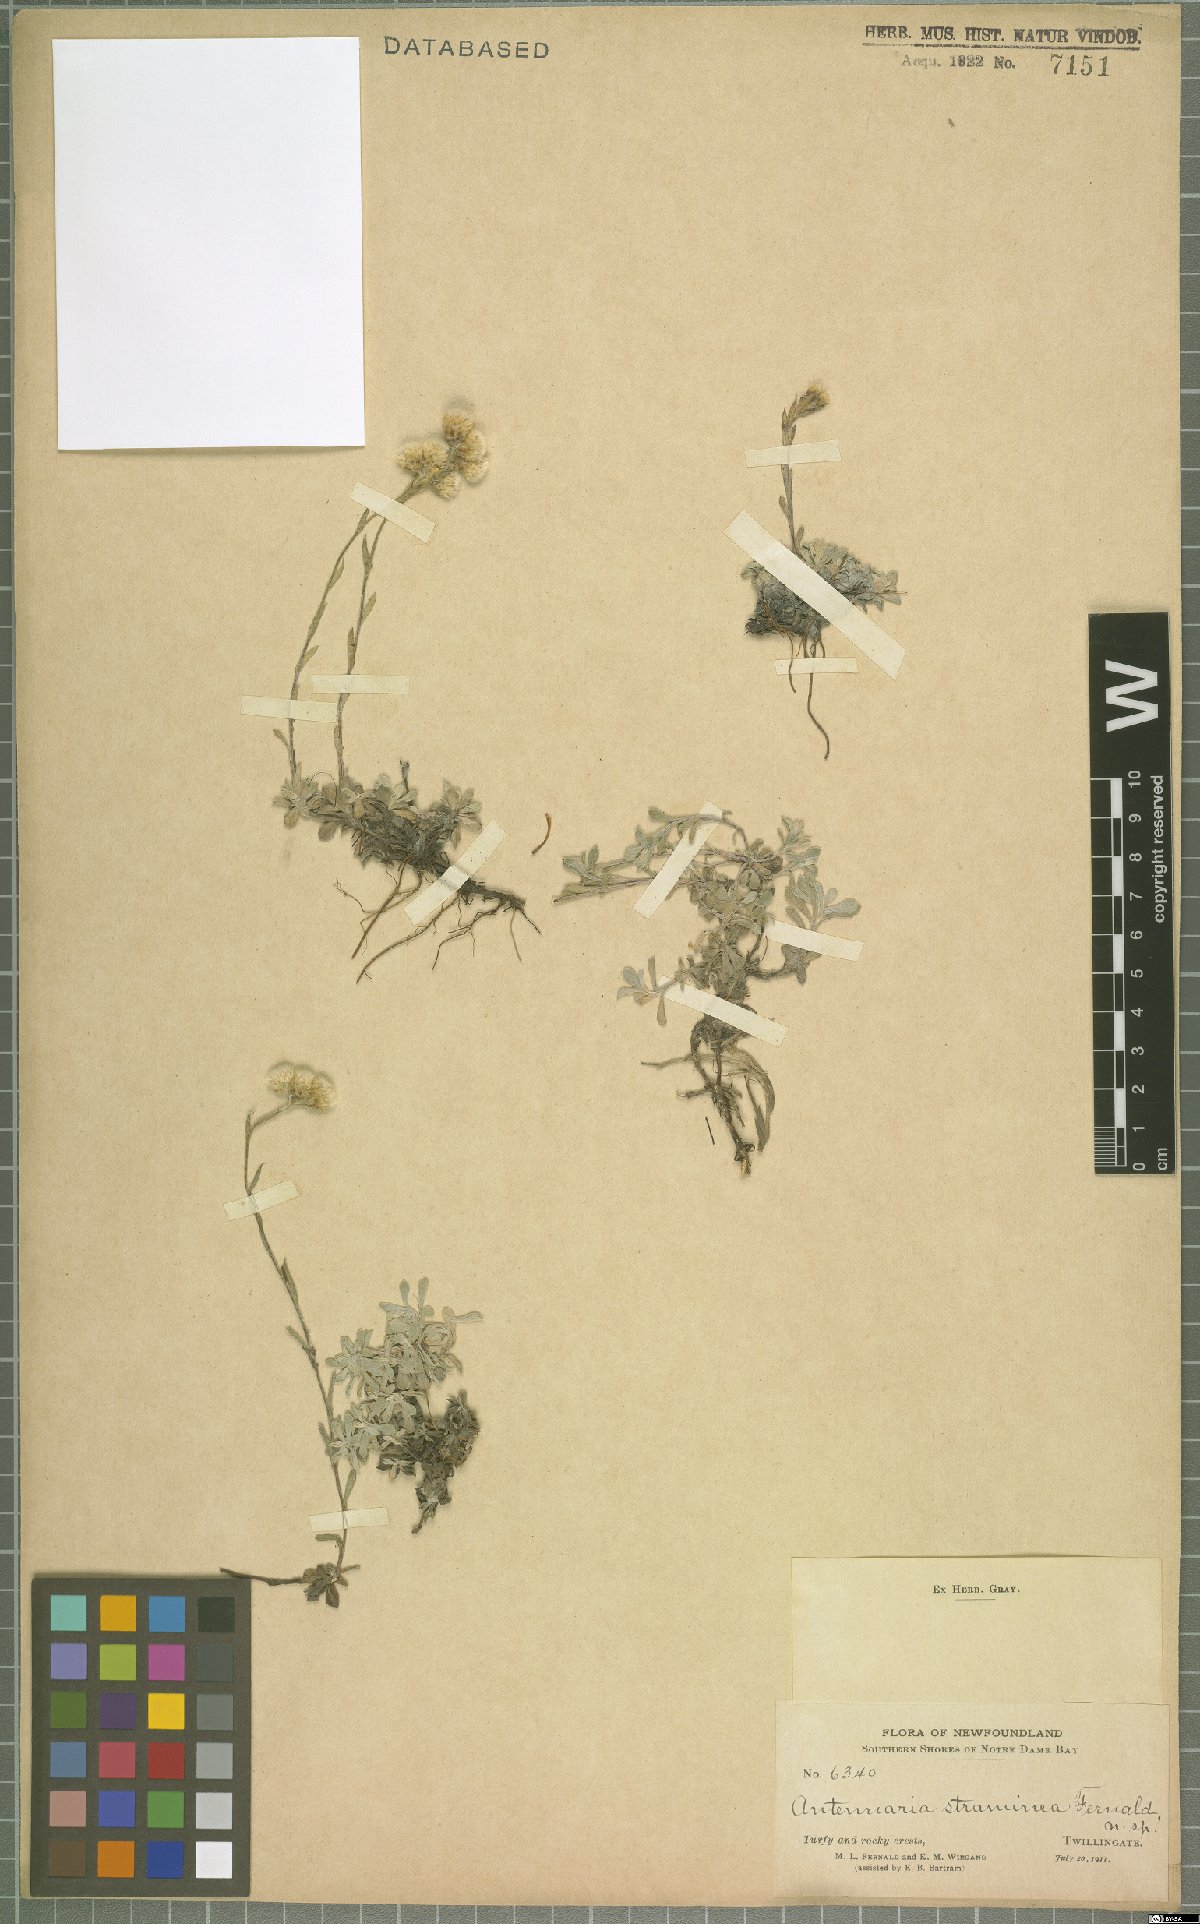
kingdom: Plantae
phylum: Tracheophyta
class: Magnoliopsida
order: Asterales
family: Asteraceae
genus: Antennaria
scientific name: Antennaria rosea
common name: Rosy pussytoes
